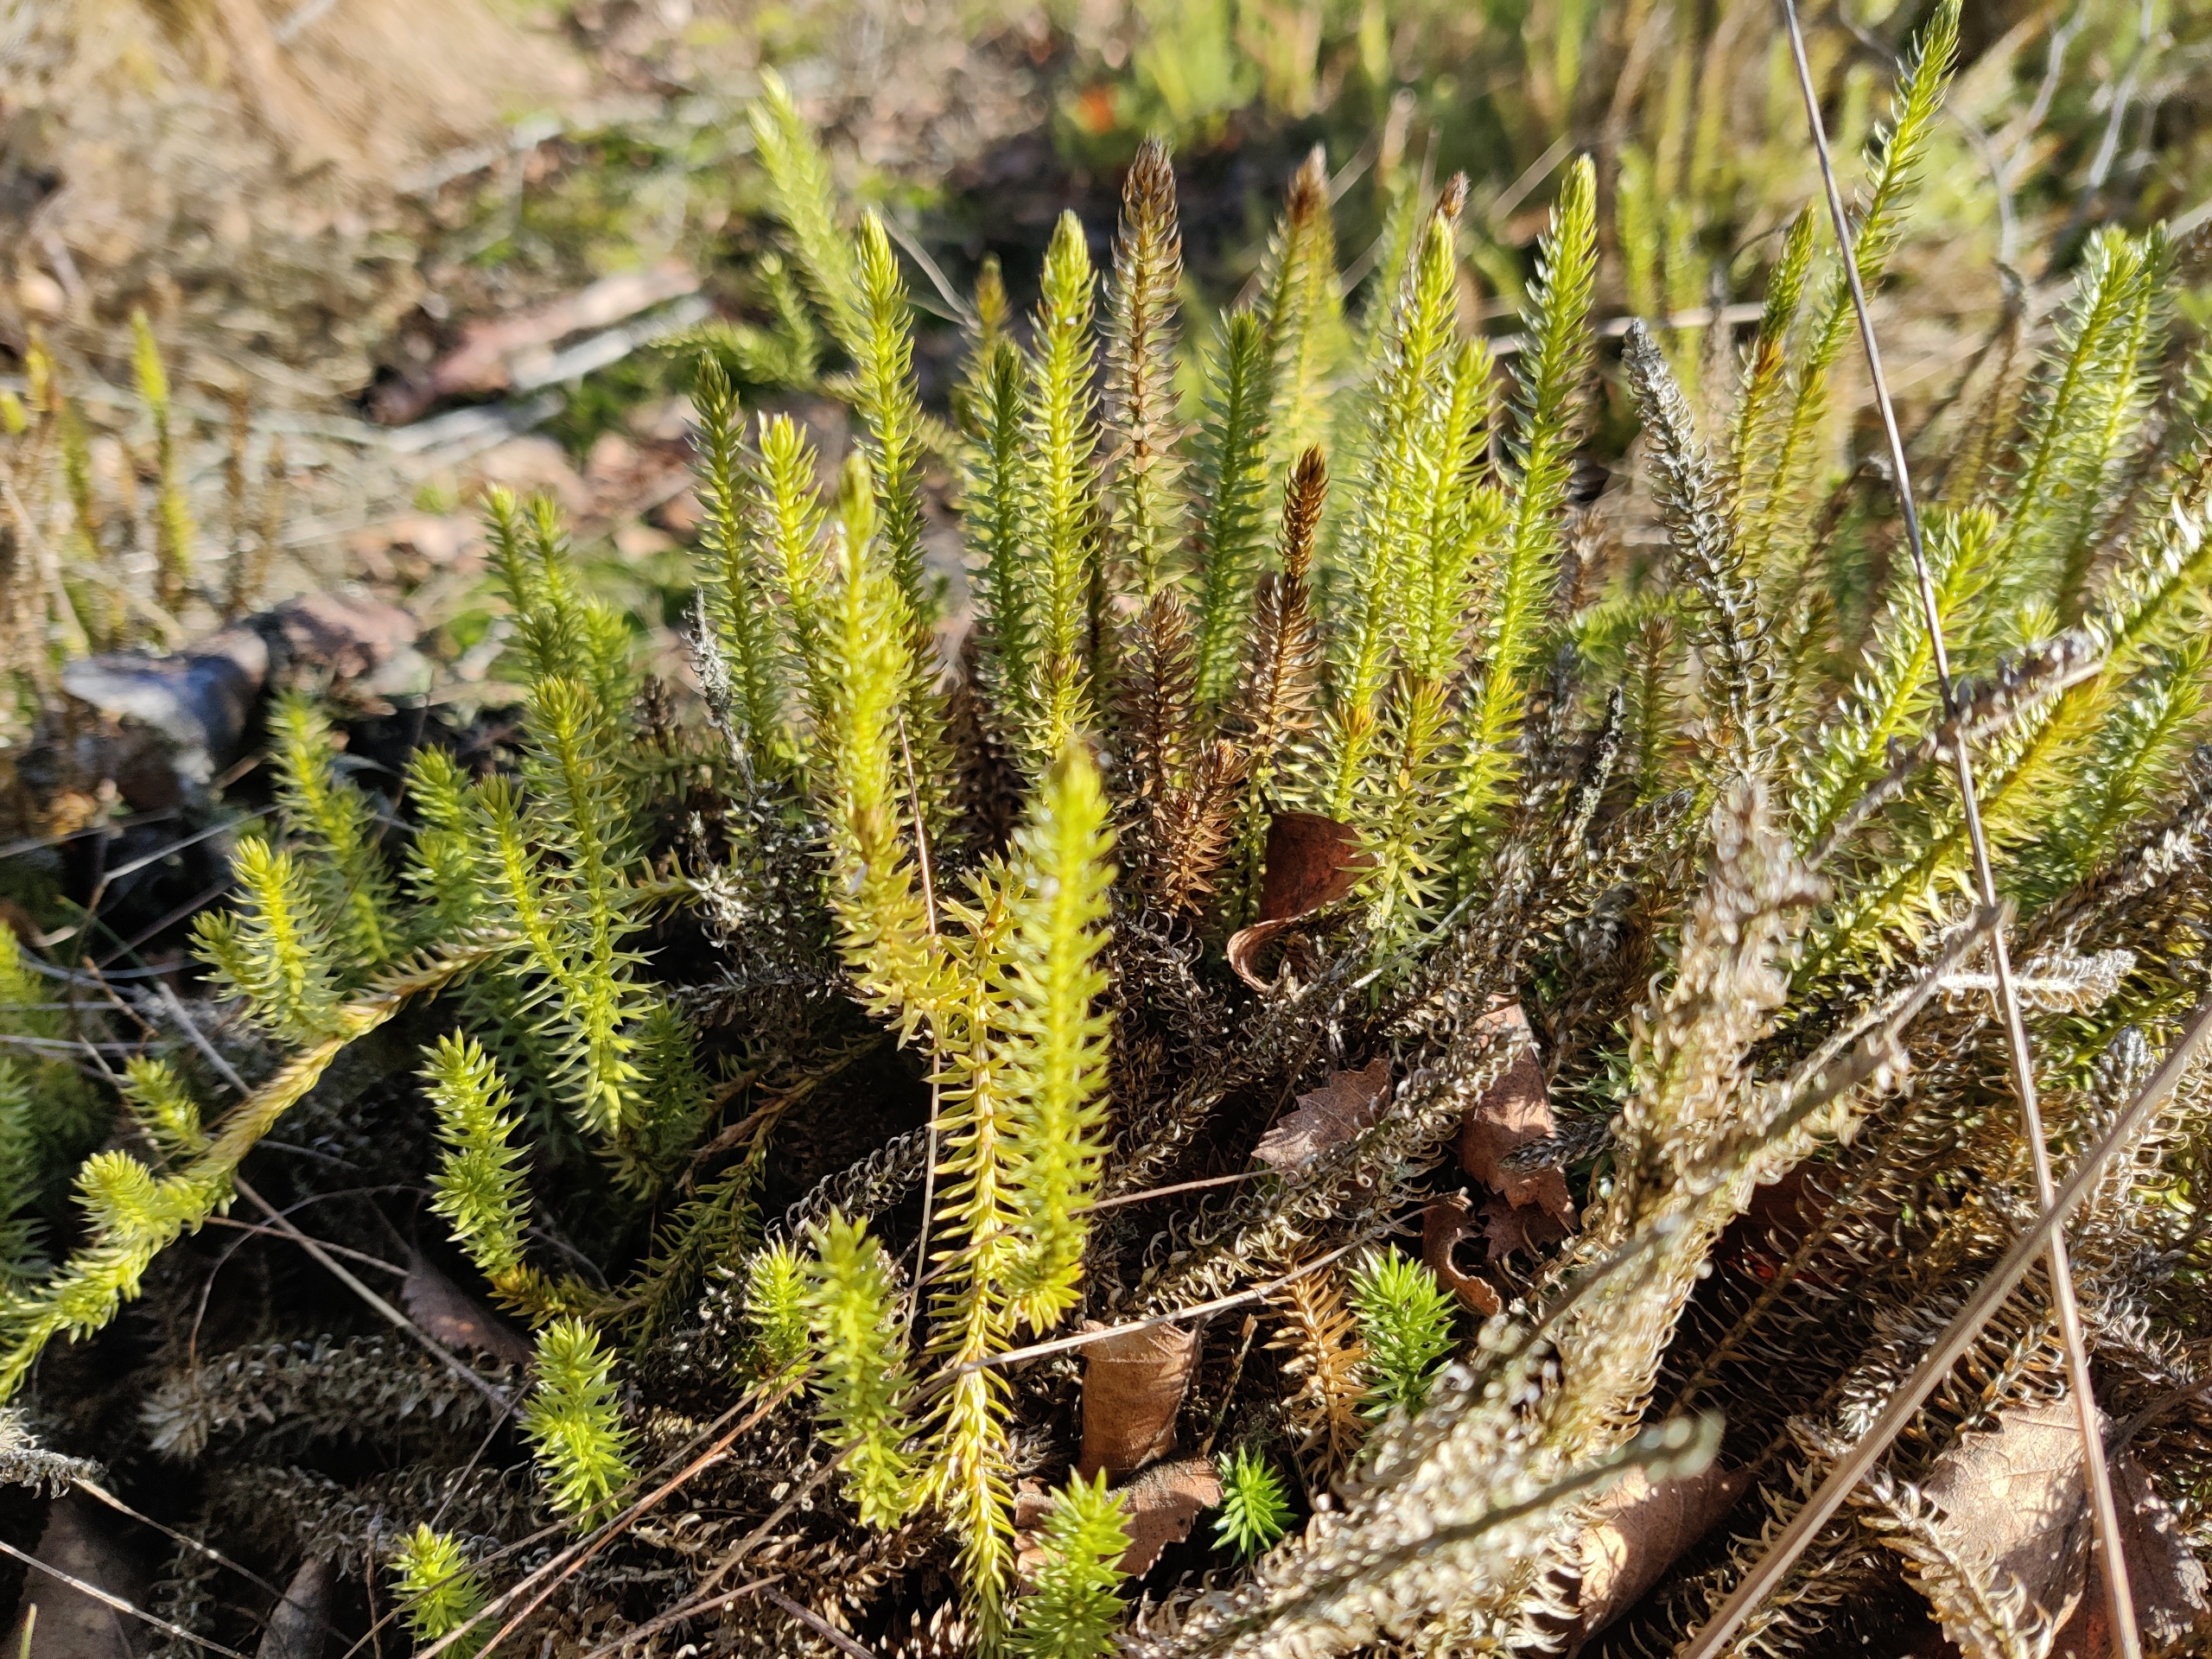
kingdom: Plantae
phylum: Tracheophyta
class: Lycopodiopsida
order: Lycopodiales
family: Lycopodiaceae
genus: Spinulum
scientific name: Spinulum annotinum
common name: Femradet ulvefod
